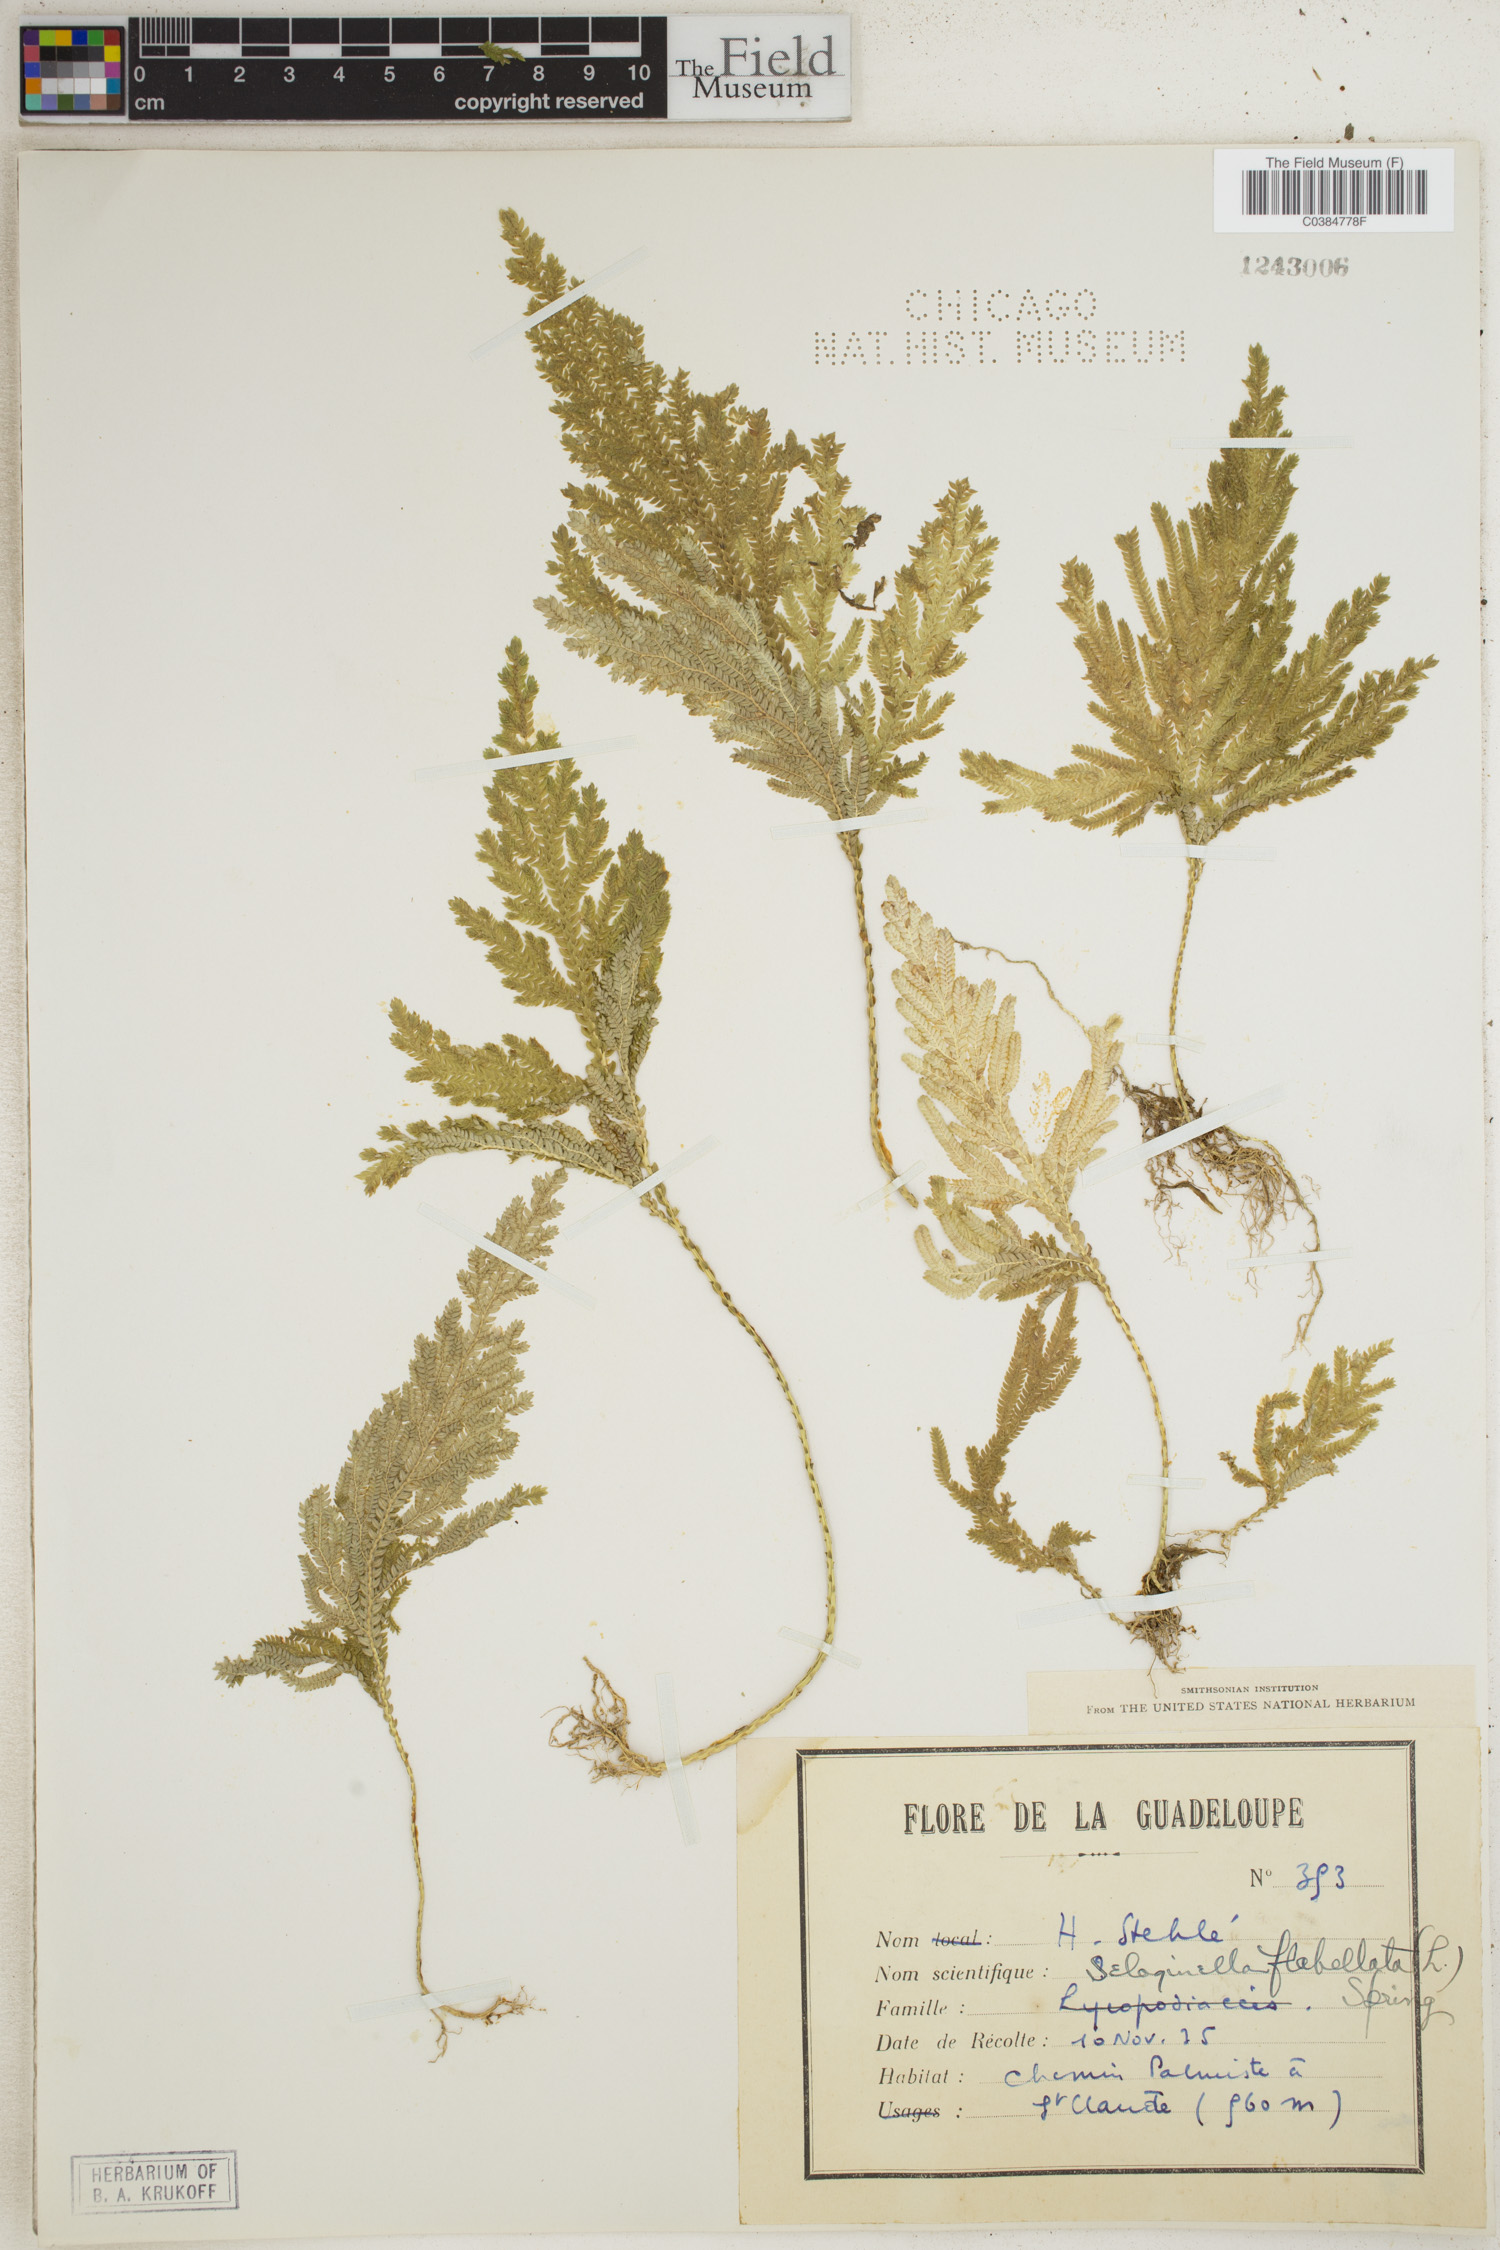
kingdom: Plantae
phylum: Tracheophyta
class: Lycopodiopsida
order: Selaginellales
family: Selaginellaceae
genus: Selaginella
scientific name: Selaginella flabellata
